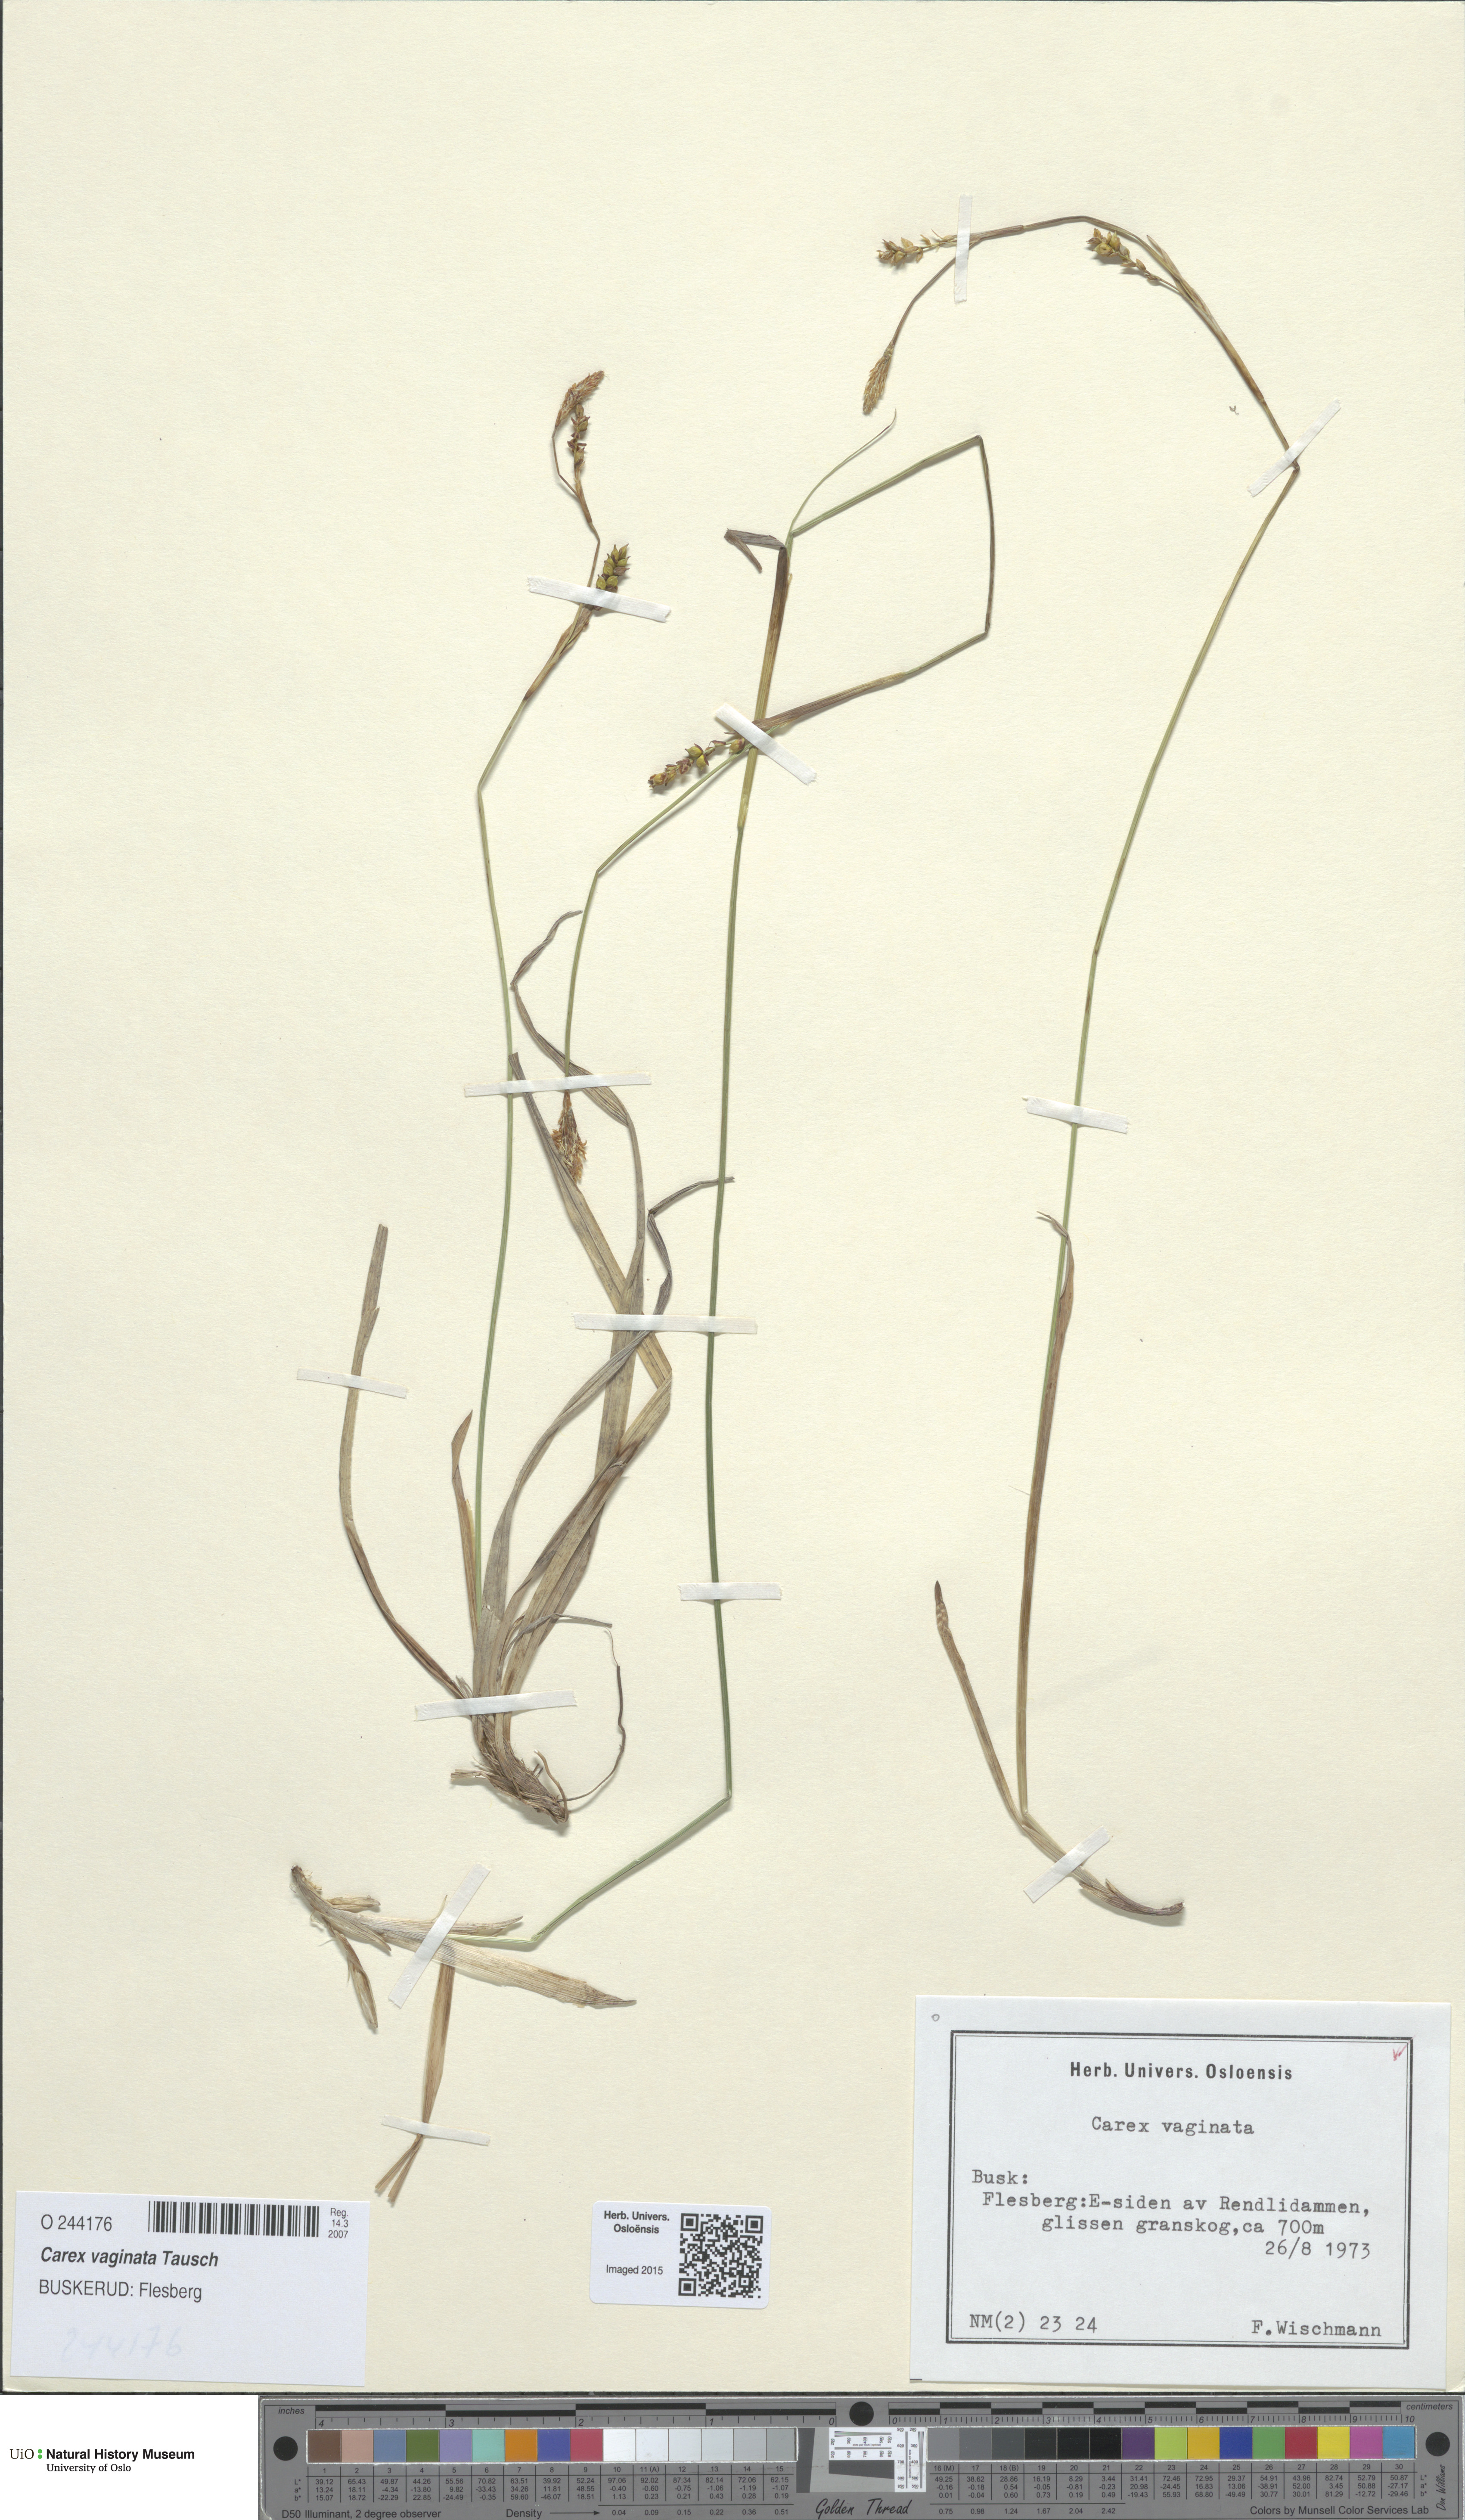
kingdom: Plantae
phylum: Tracheophyta
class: Liliopsida
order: Poales
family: Cyperaceae
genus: Carex
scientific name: Carex vaginata
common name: Sheathed sedge
